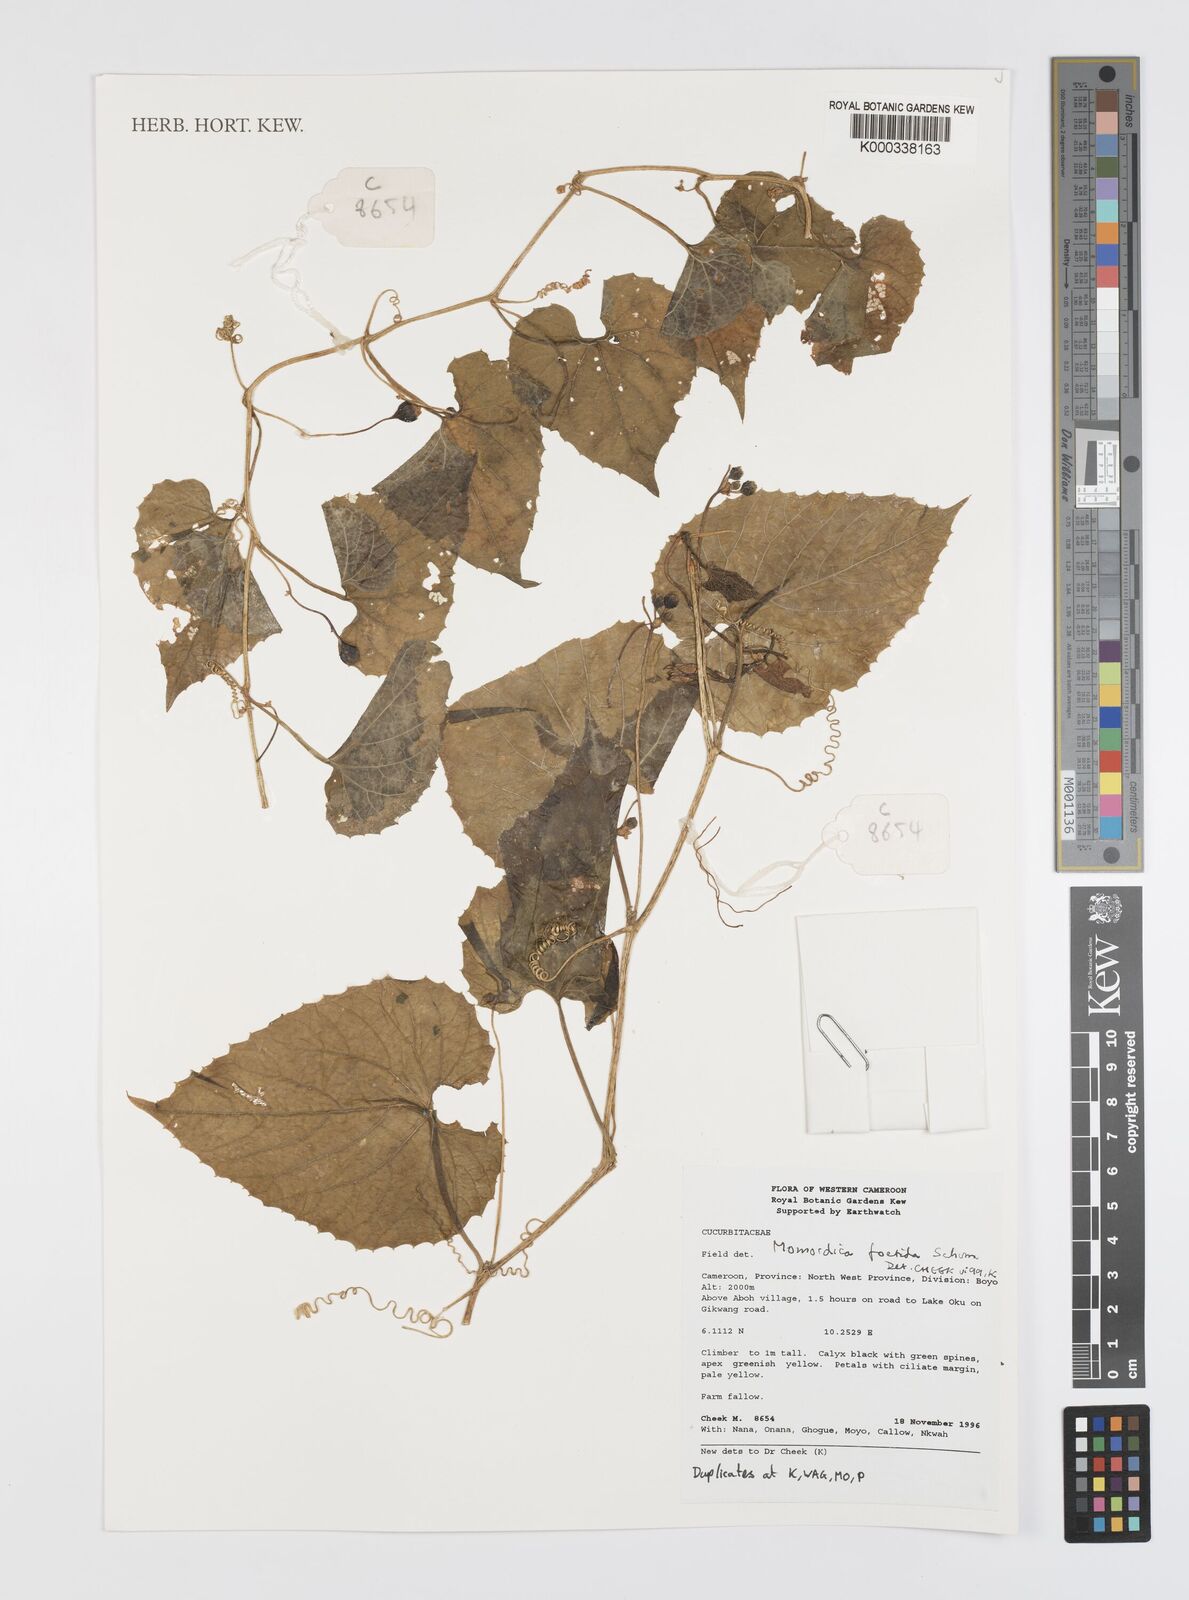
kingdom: Plantae
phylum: Tracheophyta
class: Magnoliopsida
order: Cucurbitales
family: Cucurbitaceae
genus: Momordica
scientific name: Momordica foetida
